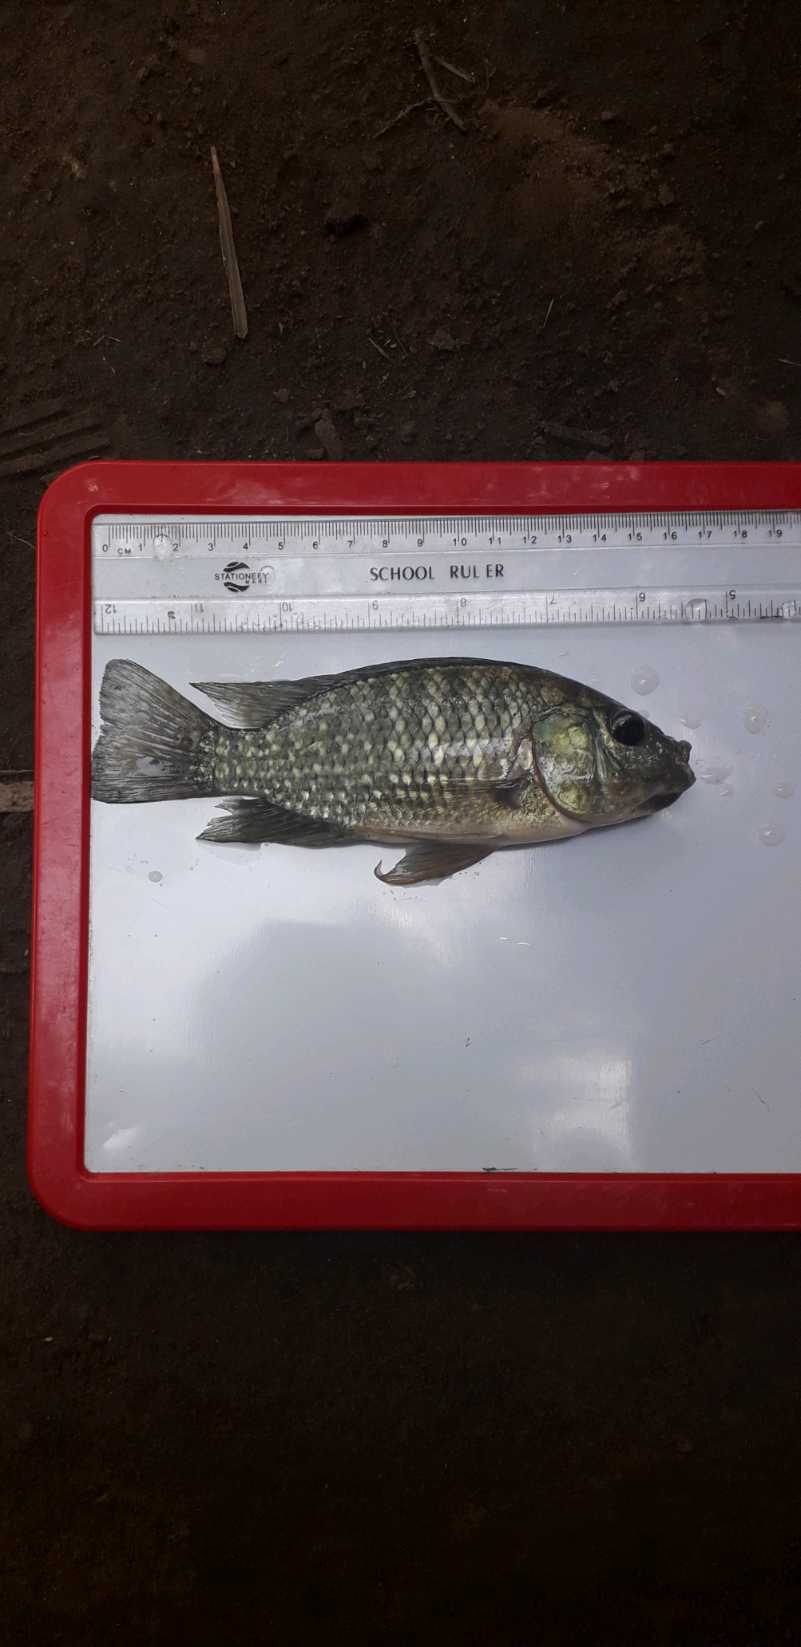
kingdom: Animalia
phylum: Chordata
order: Perciformes
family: Cichlidae
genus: Oreochromis
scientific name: Oreochromis leucostictus
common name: Blue spotted tilapia
